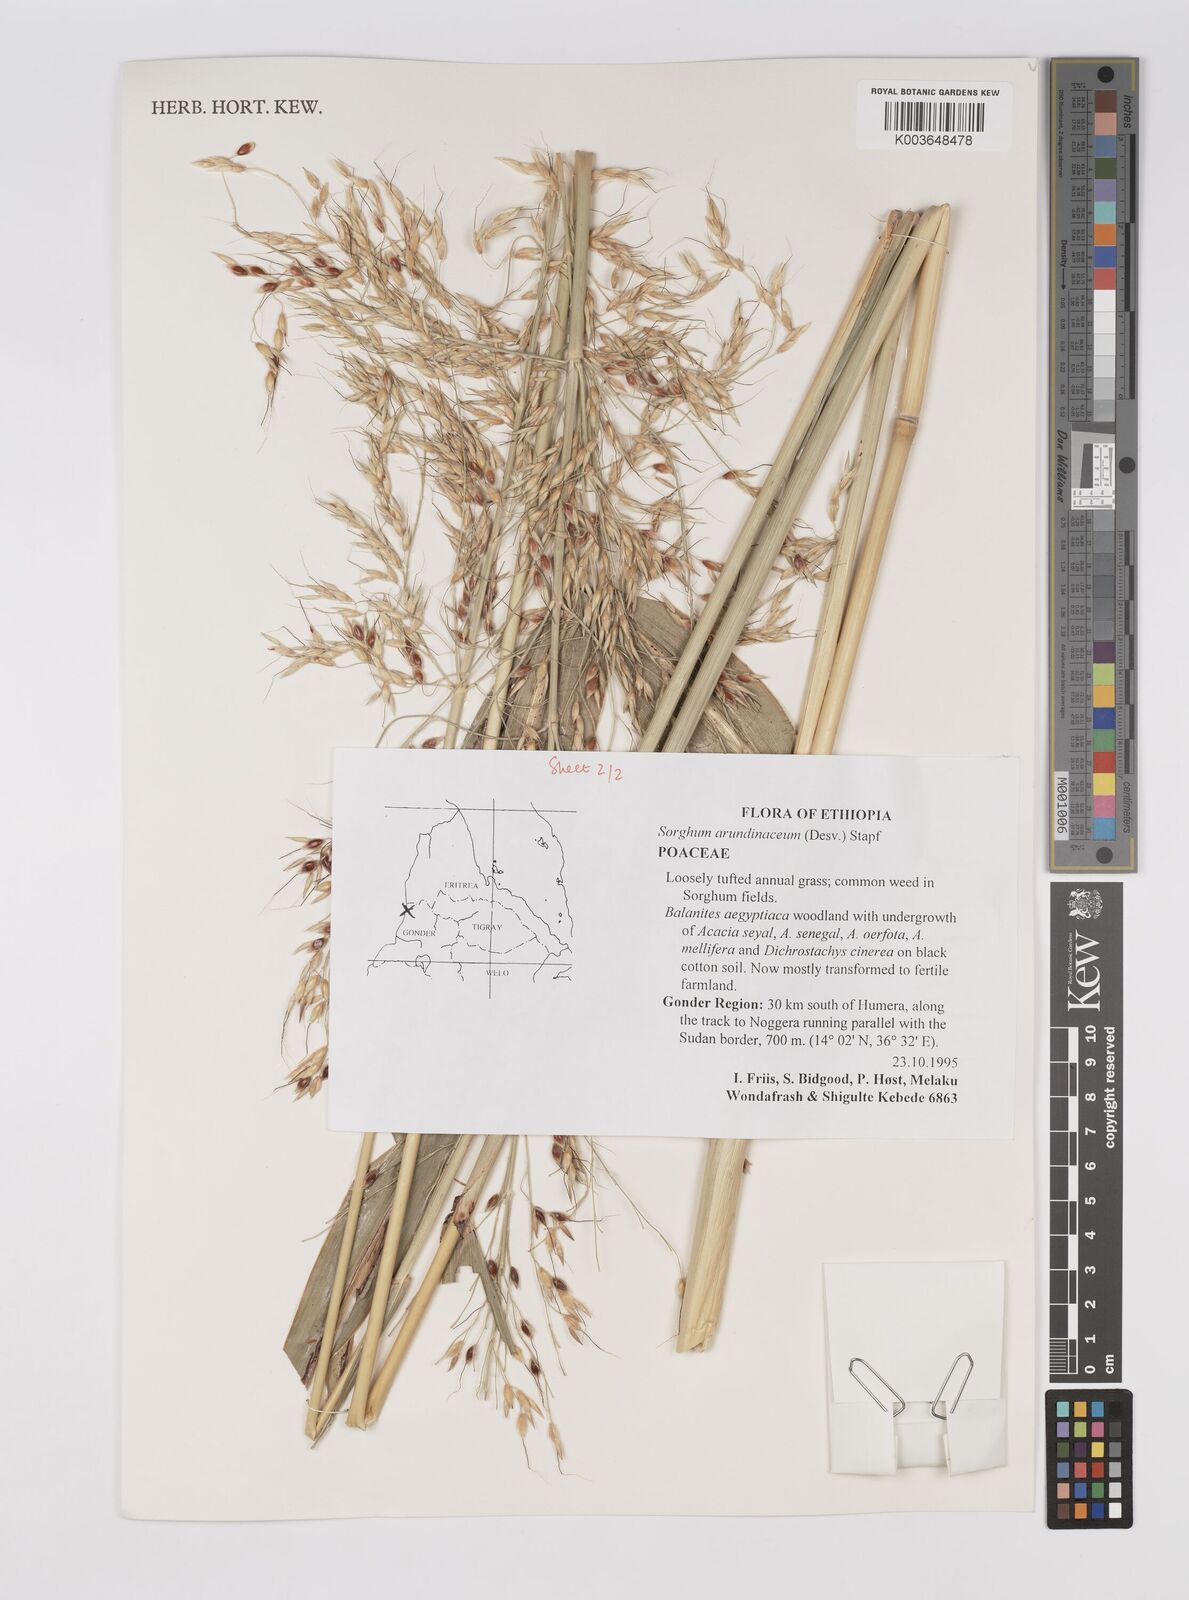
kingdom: Plantae
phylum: Tracheophyta
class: Liliopsida
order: Poales
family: Poaceae
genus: Sorghum
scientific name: Sorghum arundinaceum
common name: Sorghum
